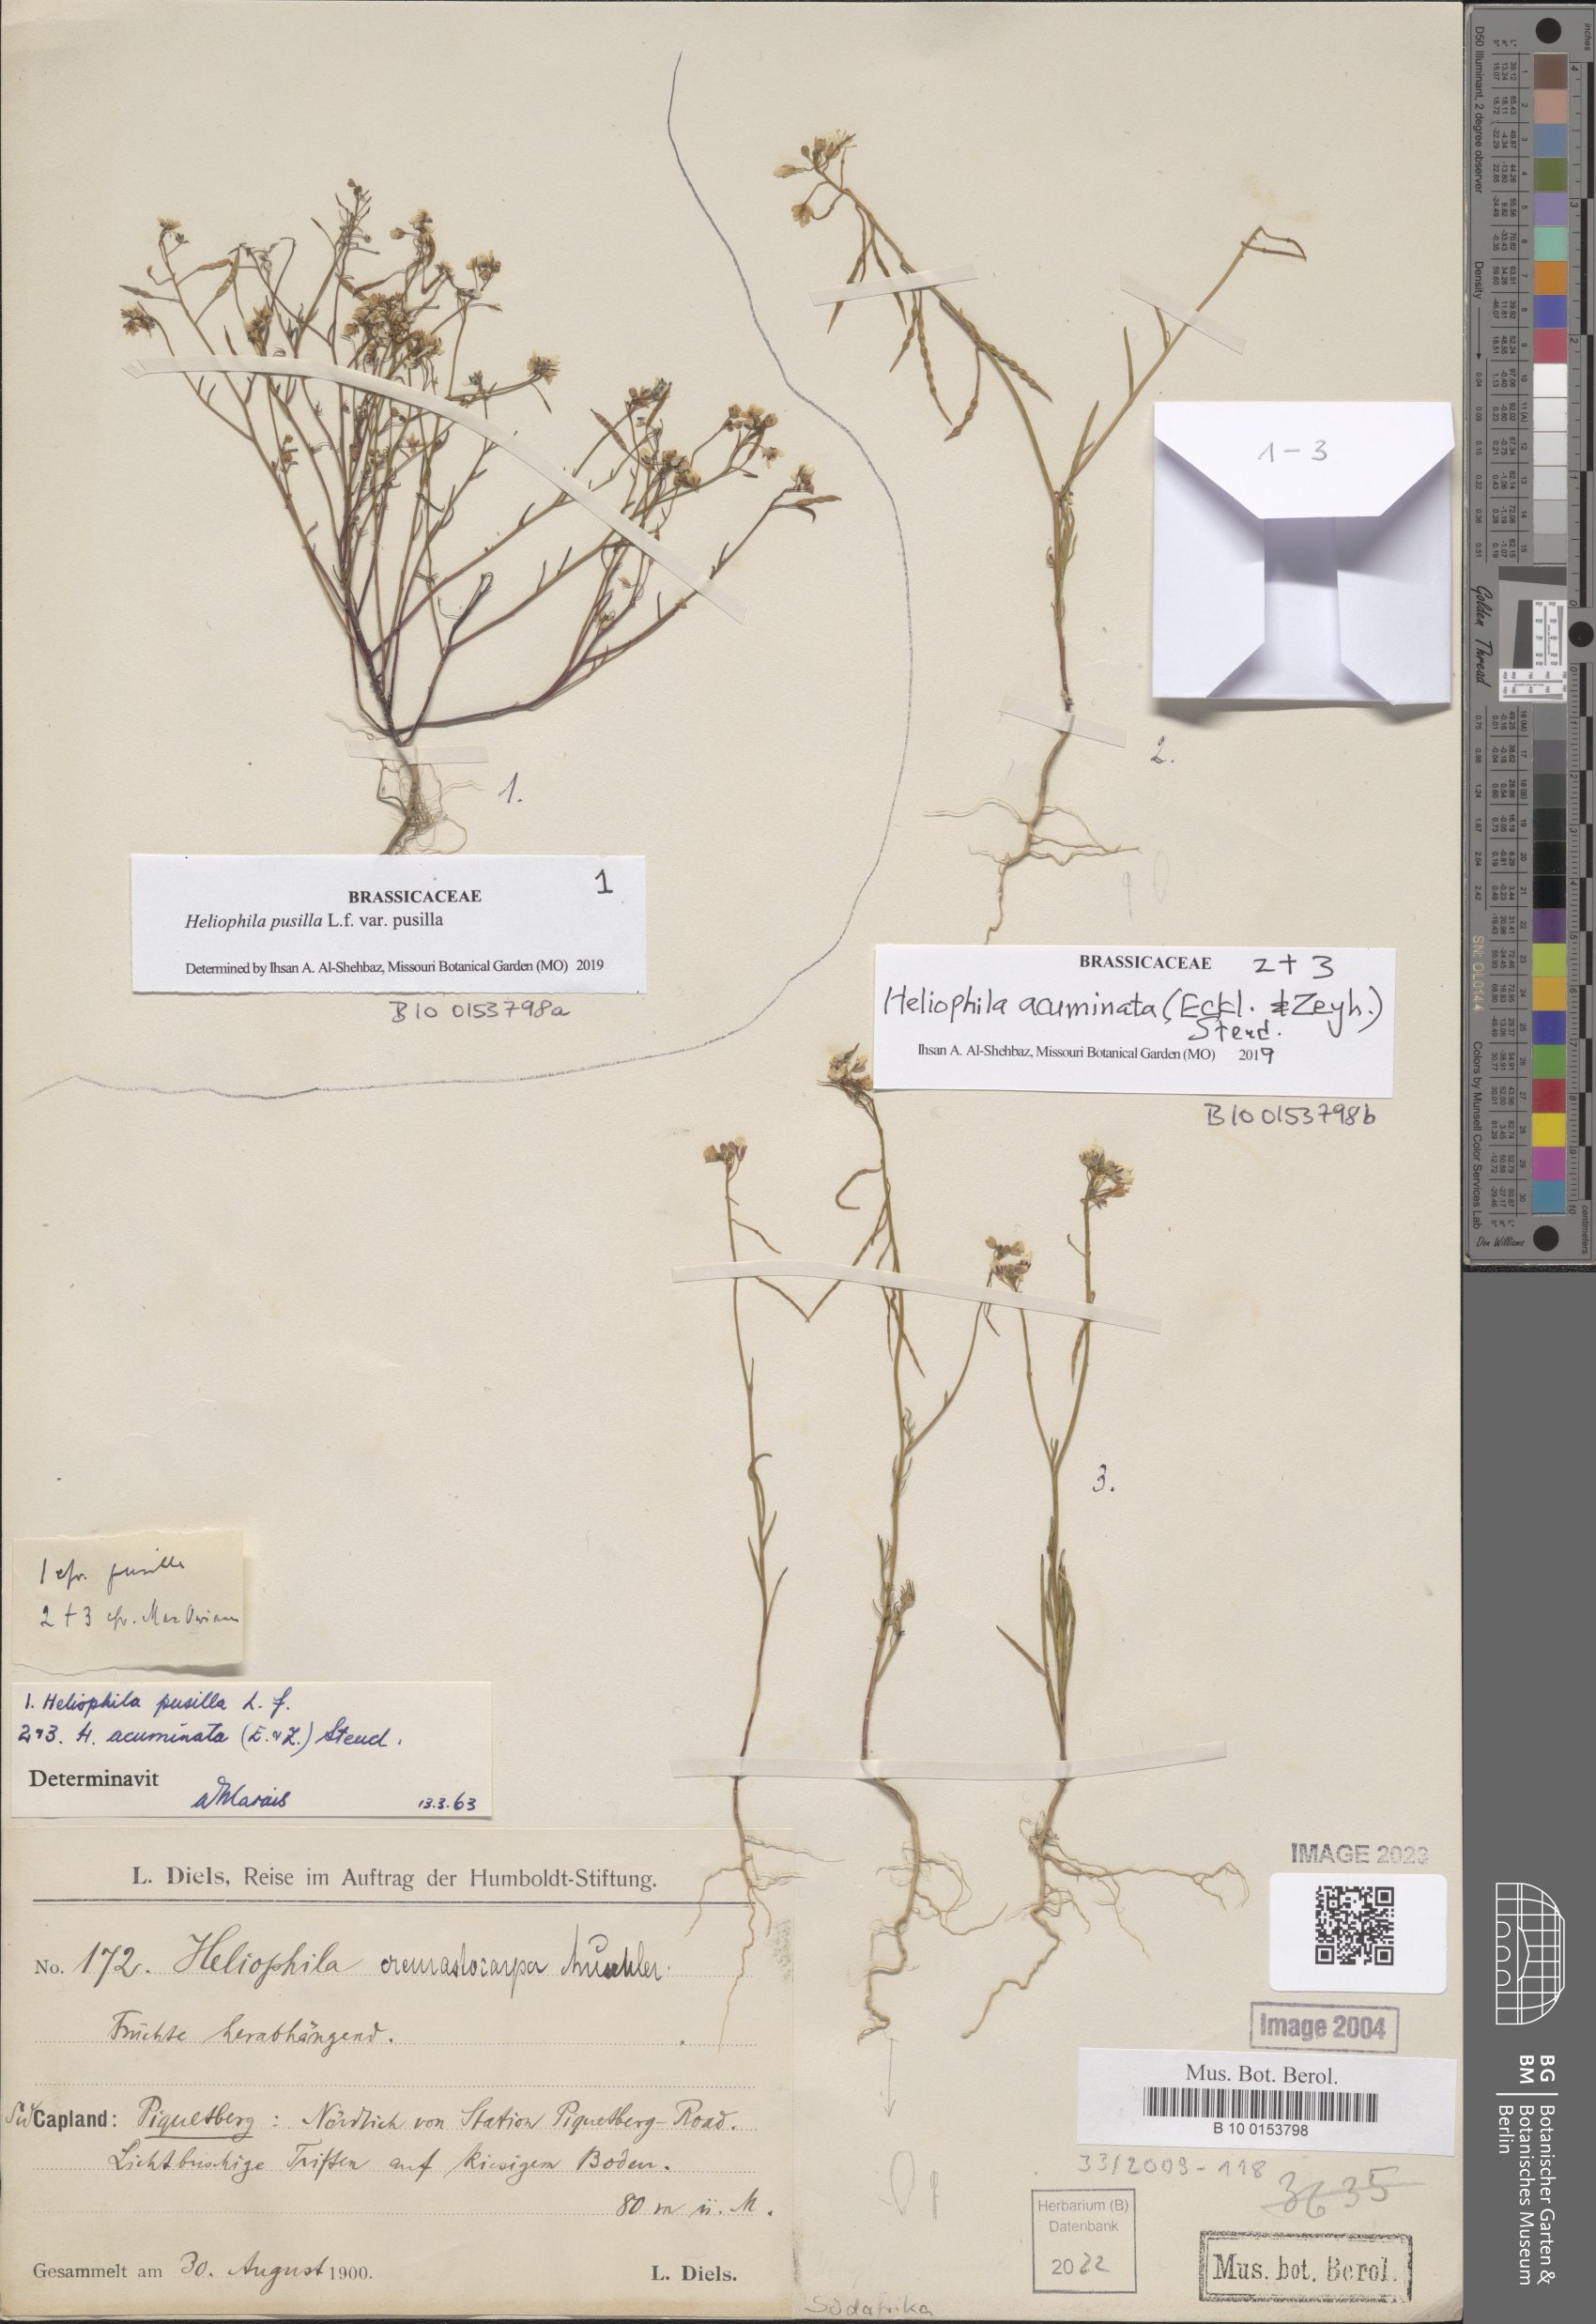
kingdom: Plantae
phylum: Tracheophyta
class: Magnoliopsida
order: Brassicales
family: Brassicaceae
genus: Heliophila
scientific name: Heliophila acuminata
